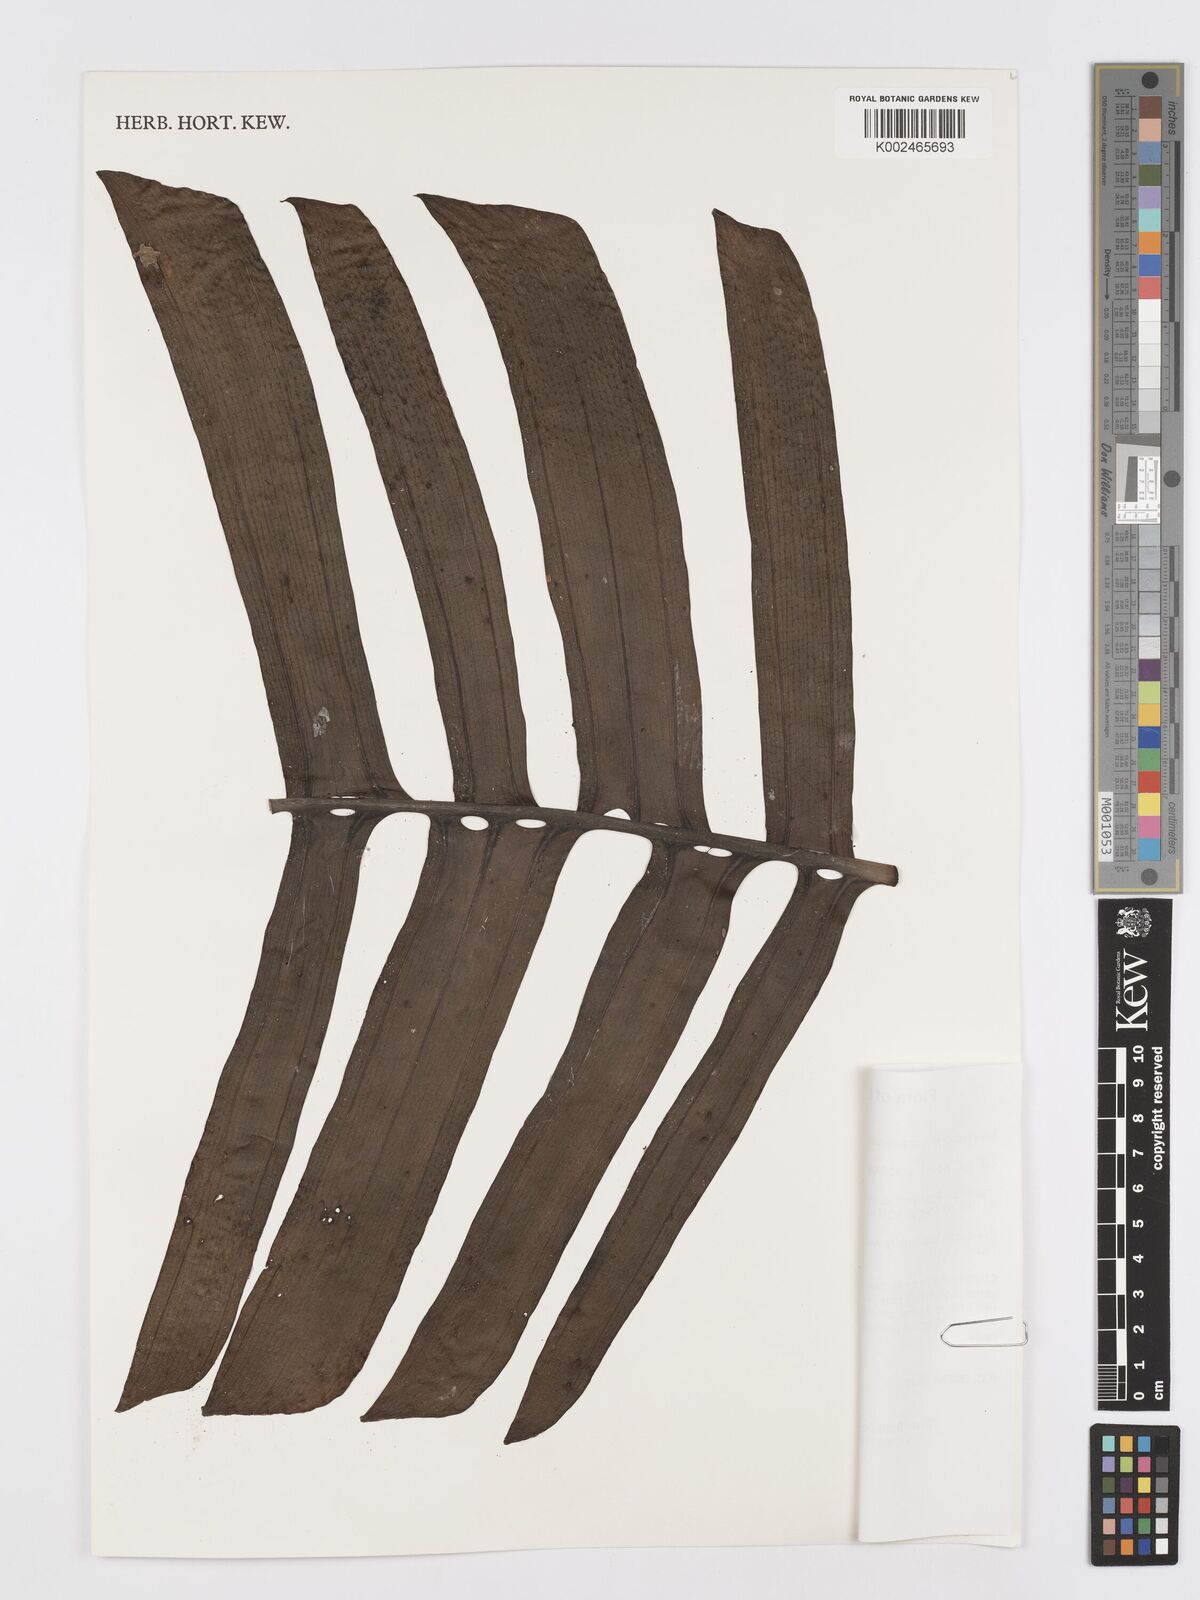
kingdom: Plantae
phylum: Tracheophyta
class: Liliopsida
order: Alismatales
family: Araceae
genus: Rhaphidophora
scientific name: Rhaphidophora crassicaulis
